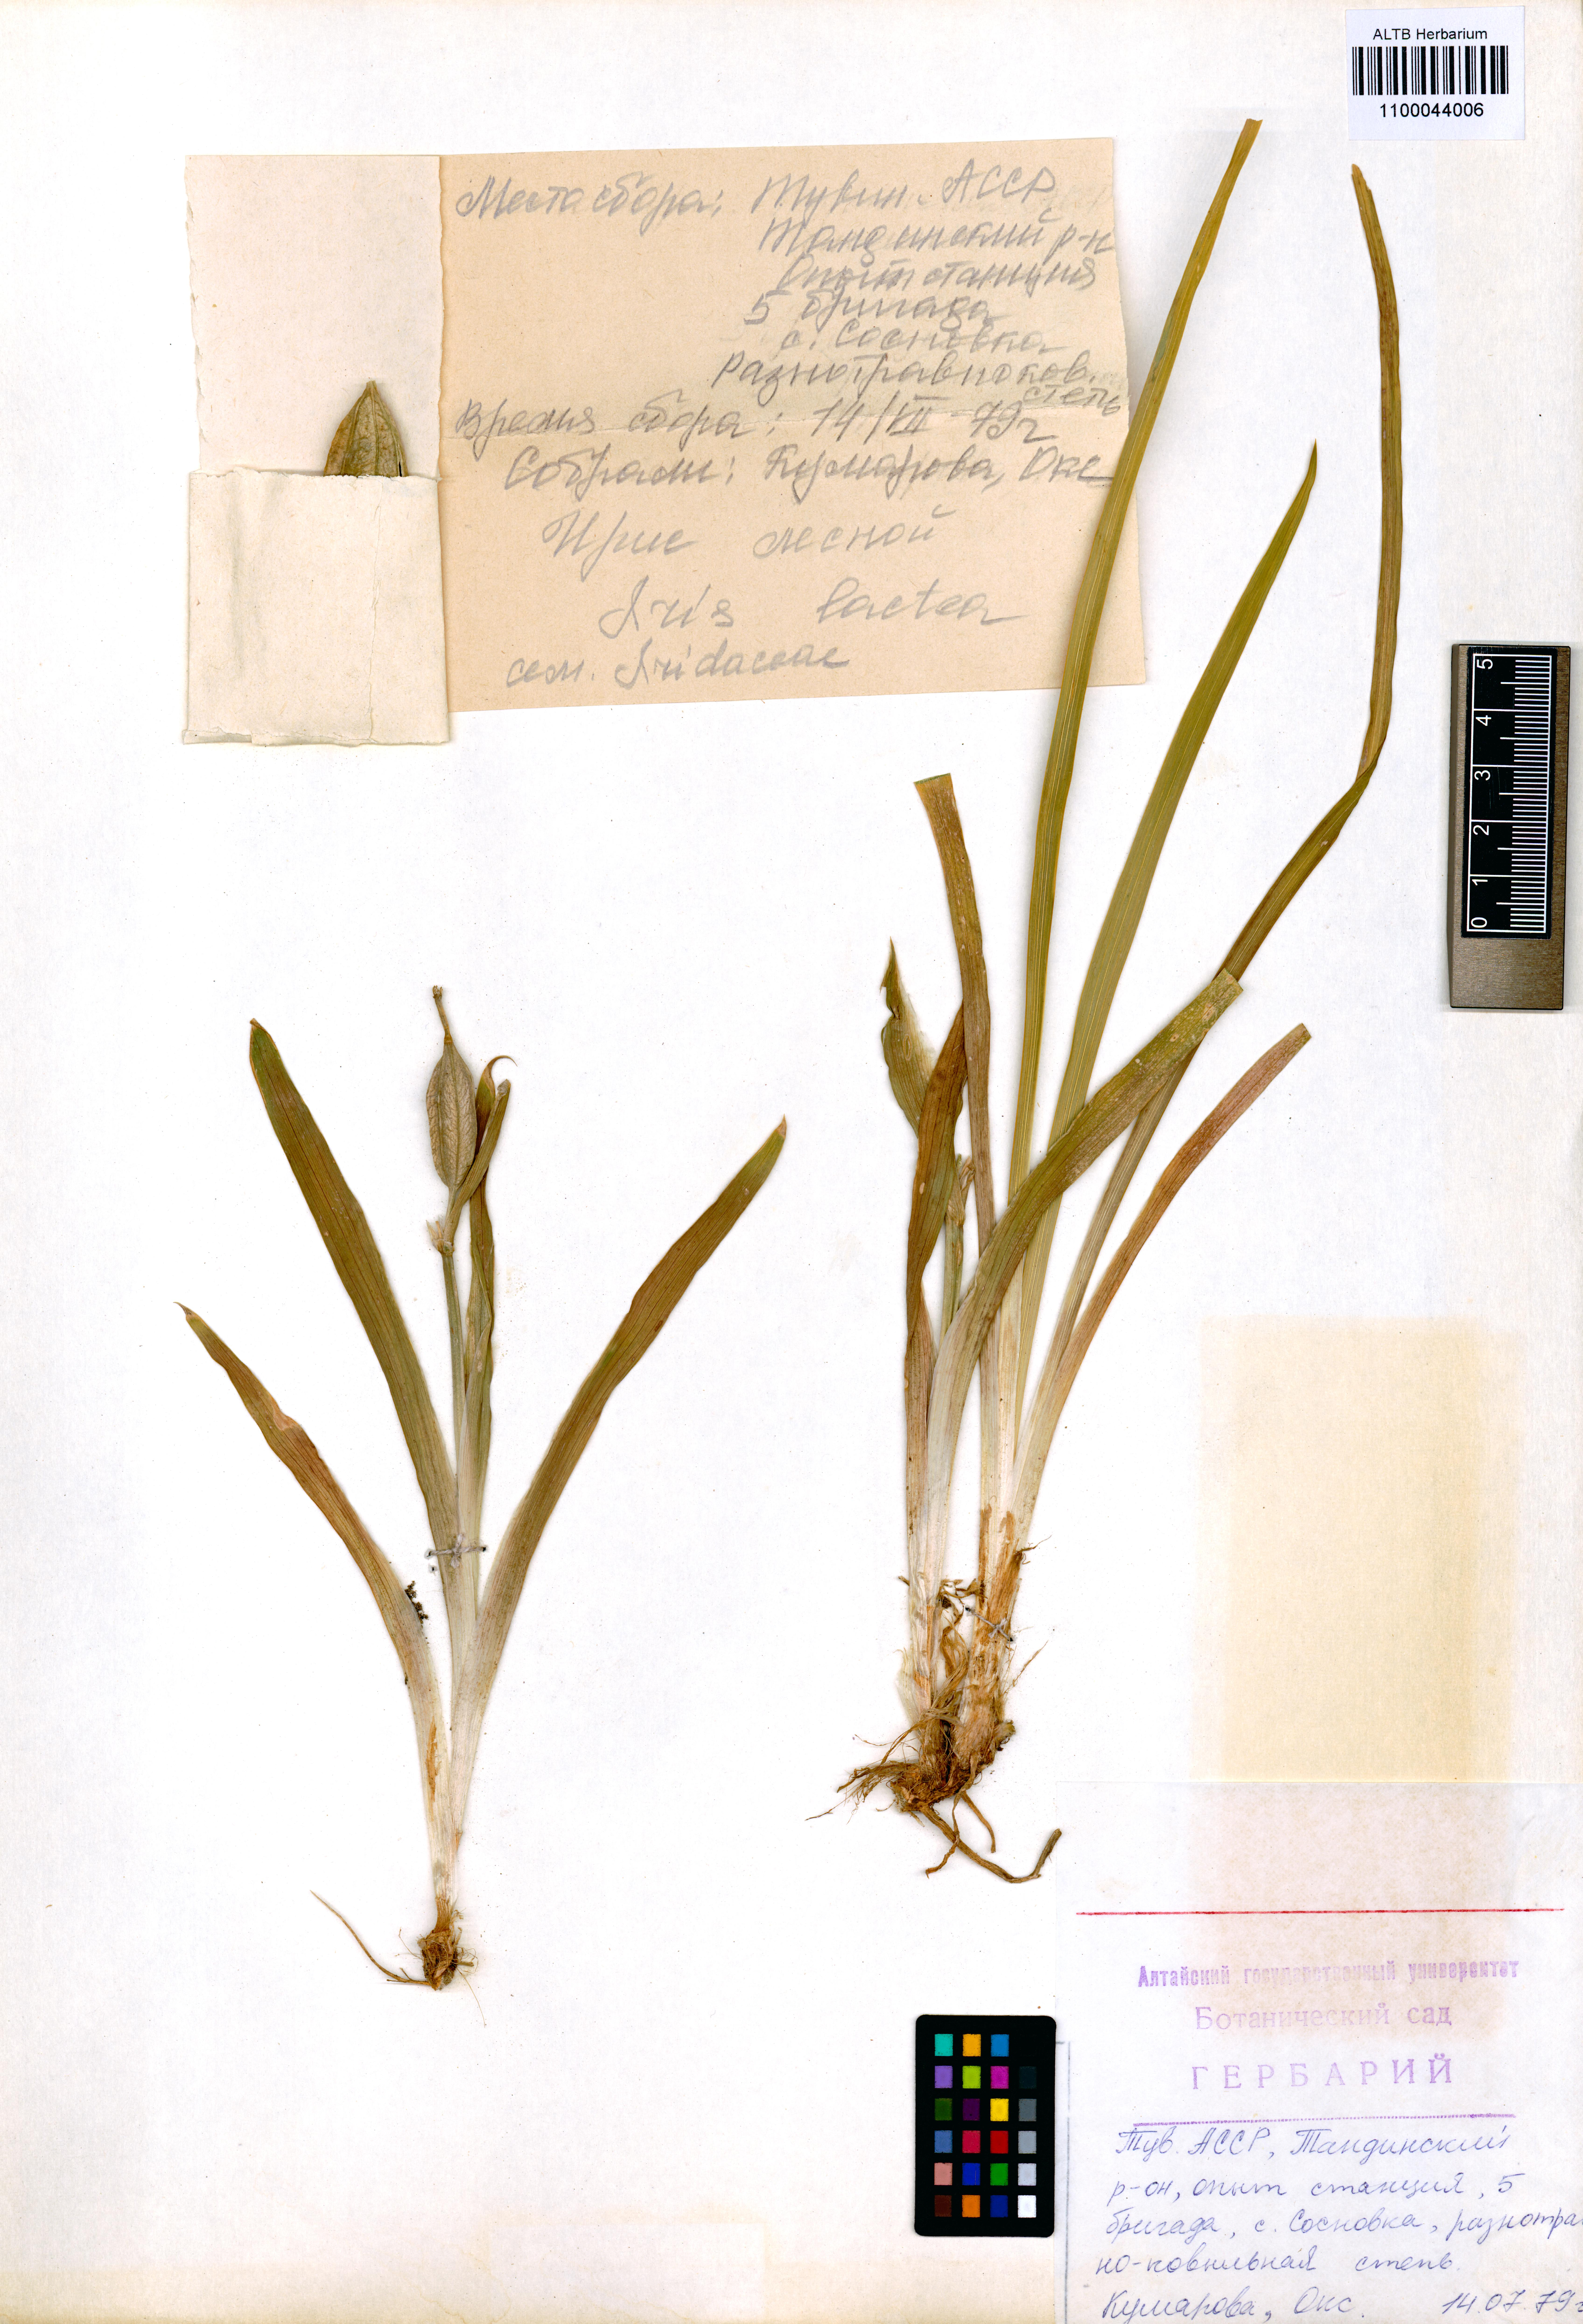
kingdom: Plantae
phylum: Tracheophyta
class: Liliopsida
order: Asparagales
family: Iridaceae
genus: Iris
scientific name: Iris lactea
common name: White-flower chinese iris
